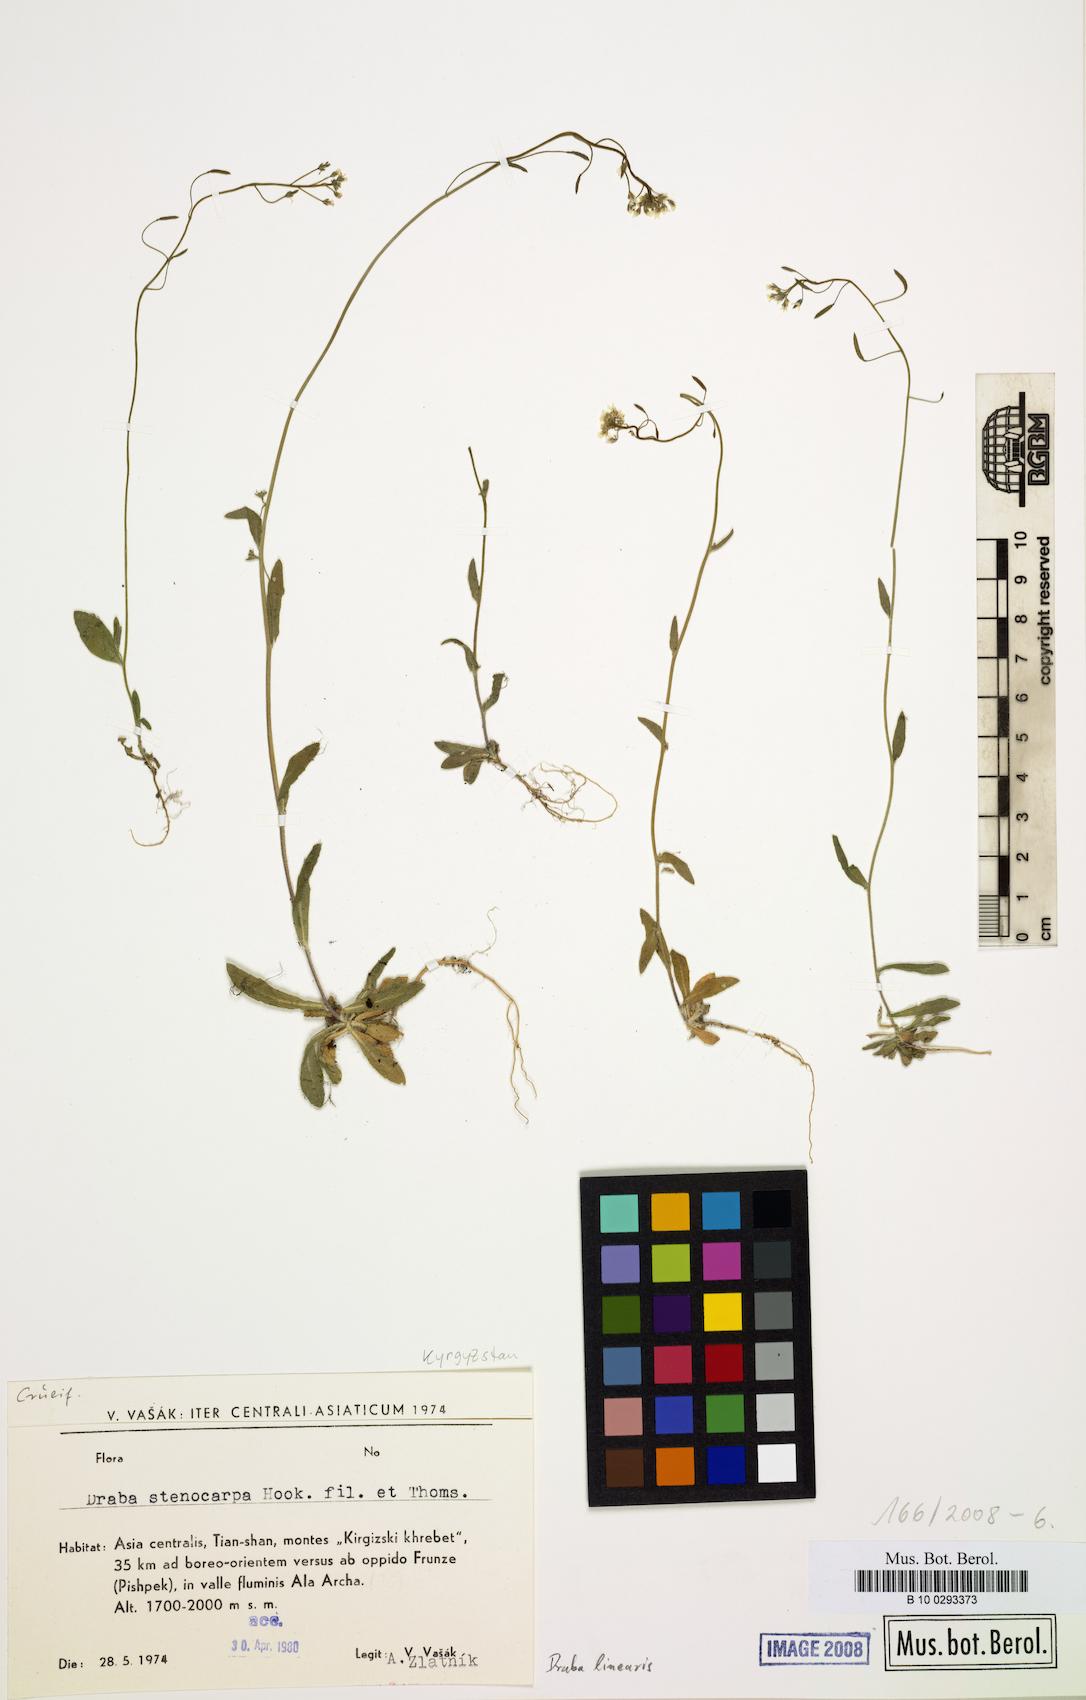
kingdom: Plantae
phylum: Tracheophyta
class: Magnoliopsida
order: Brassicales
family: Brassicaceae
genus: Draba
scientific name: Draba
